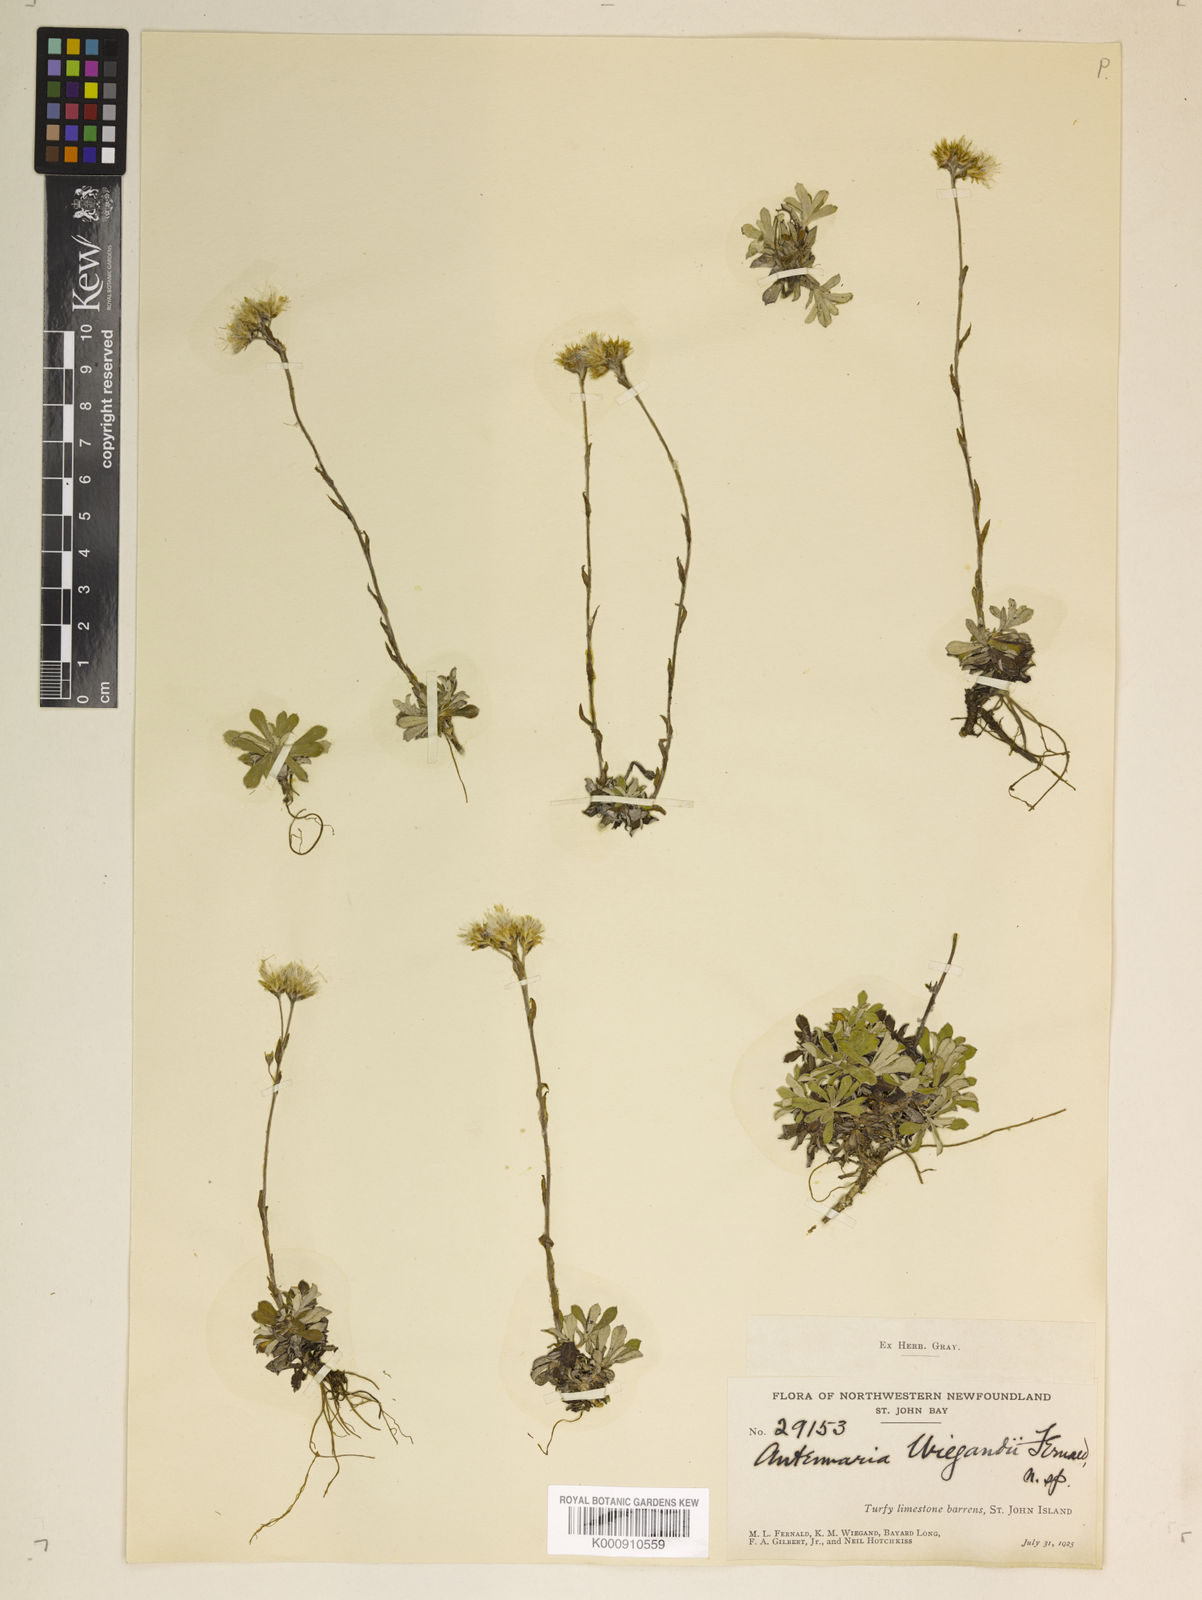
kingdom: Plantae
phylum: Tracheophyta
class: Magnoliopsida
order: Asterales
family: Asteraceae
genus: Antennaria
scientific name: Antennaria alpina
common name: Alpine pussytoes
